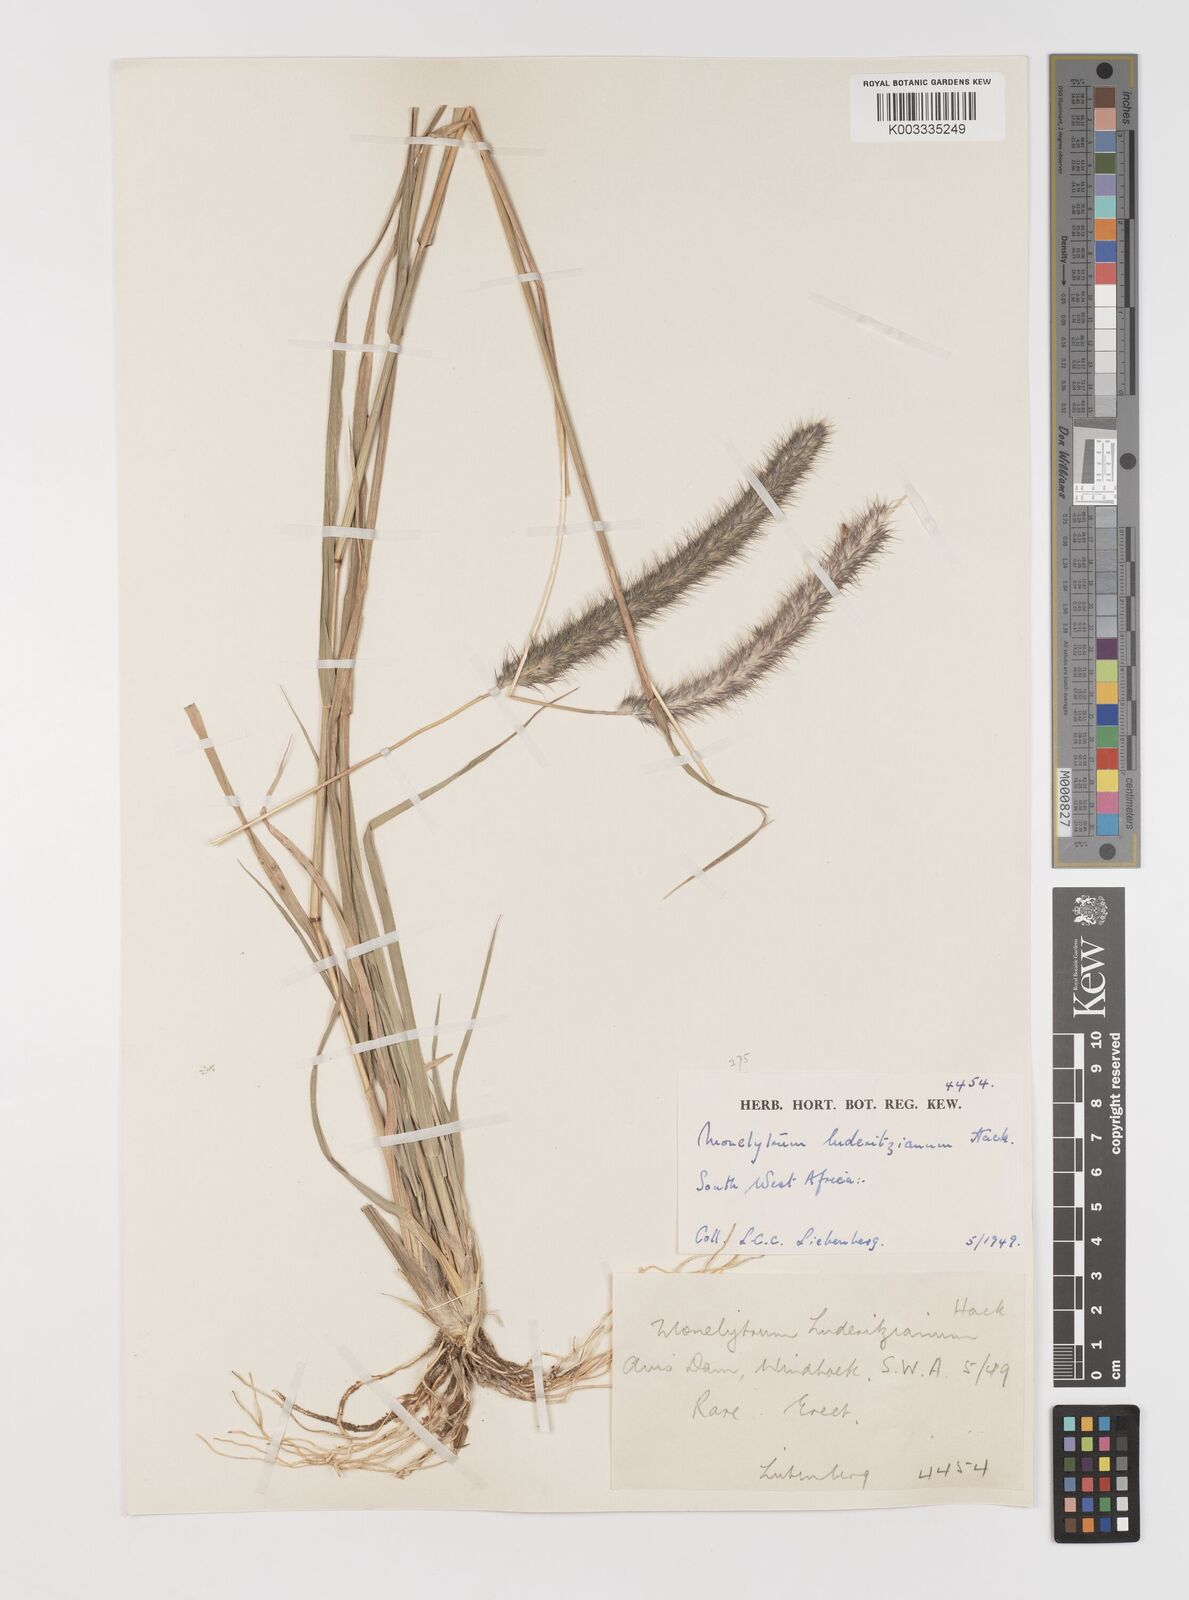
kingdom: Plantae
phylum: Tracheophyta
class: Liliopsida
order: Poales
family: Poaceae
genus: Monelytrum
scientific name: Monelytrum luederitzianum
